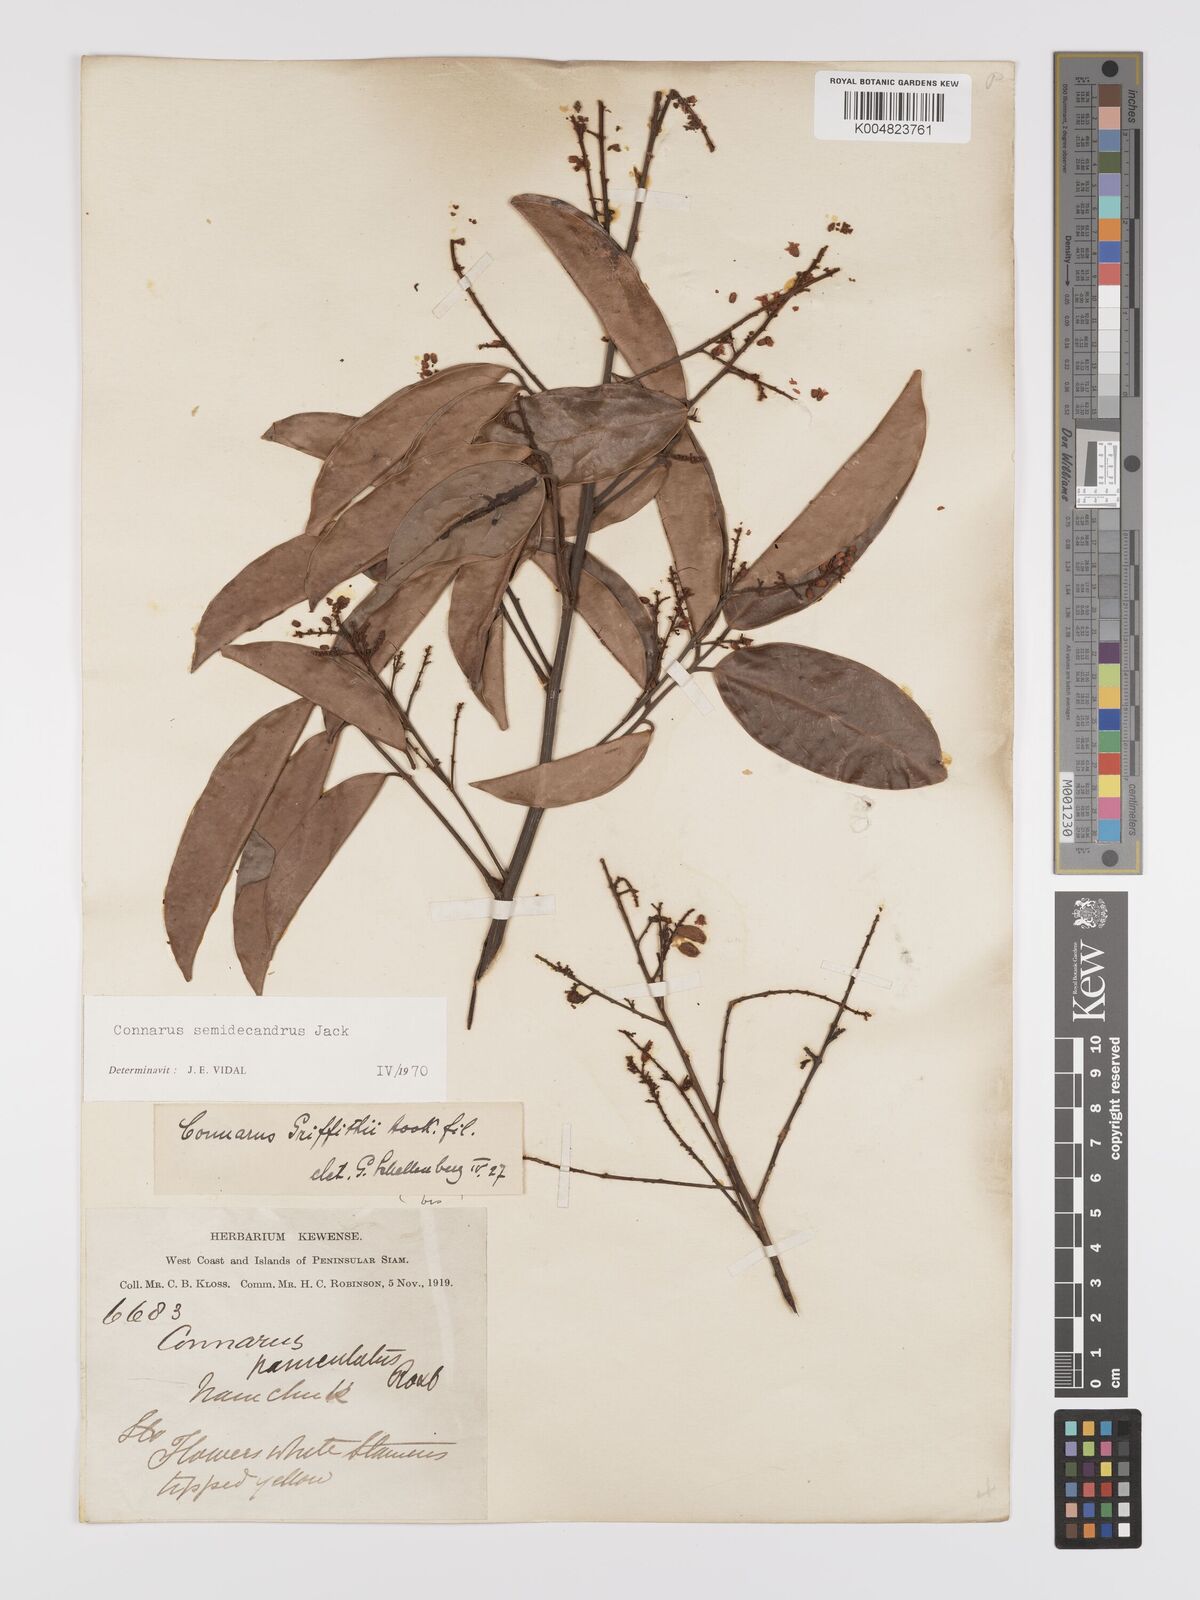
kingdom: Plantae
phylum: Tracheophyta
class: Magnoliopsida
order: Oxalidales
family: Connaraceae
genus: Connarus
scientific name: Connarus semidecandrus
